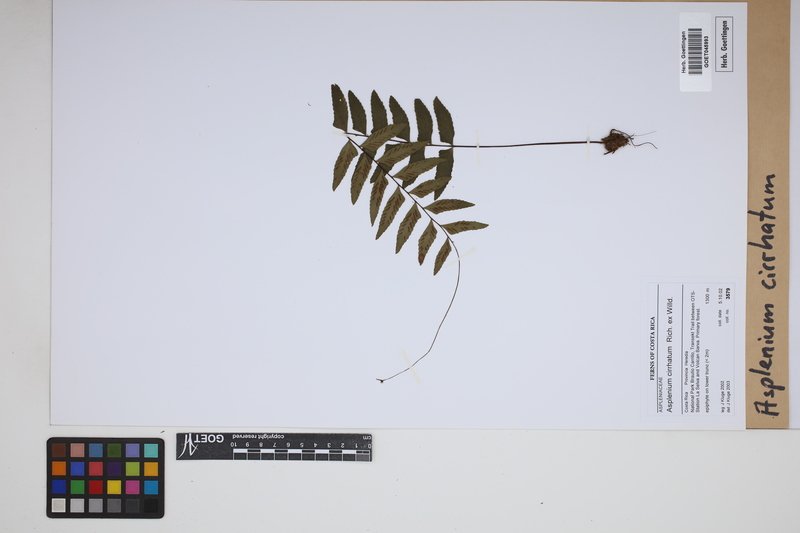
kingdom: Plantae
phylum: Tracheophyta
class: Polypodiopsida
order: Polypodiales
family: Aspleniaceae
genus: Asplenium
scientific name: Asplenium cirrhatum
